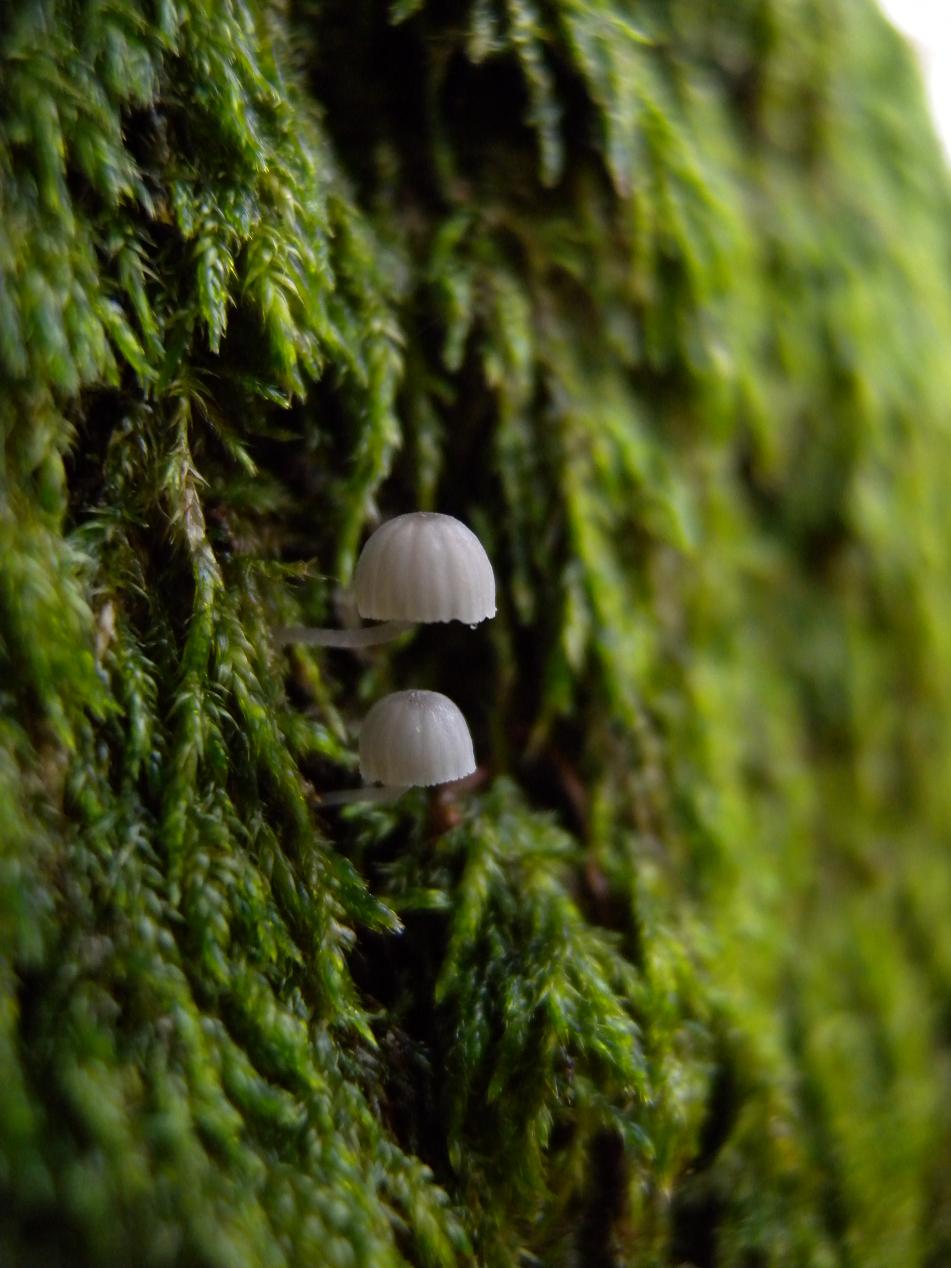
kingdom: Fungi
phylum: Basidiomycota
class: Agaricomycetes
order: Agaricales
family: Mycenaceae
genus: Mycena
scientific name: Mycena pseudocorticola
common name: gråblå bark-huesvamp
